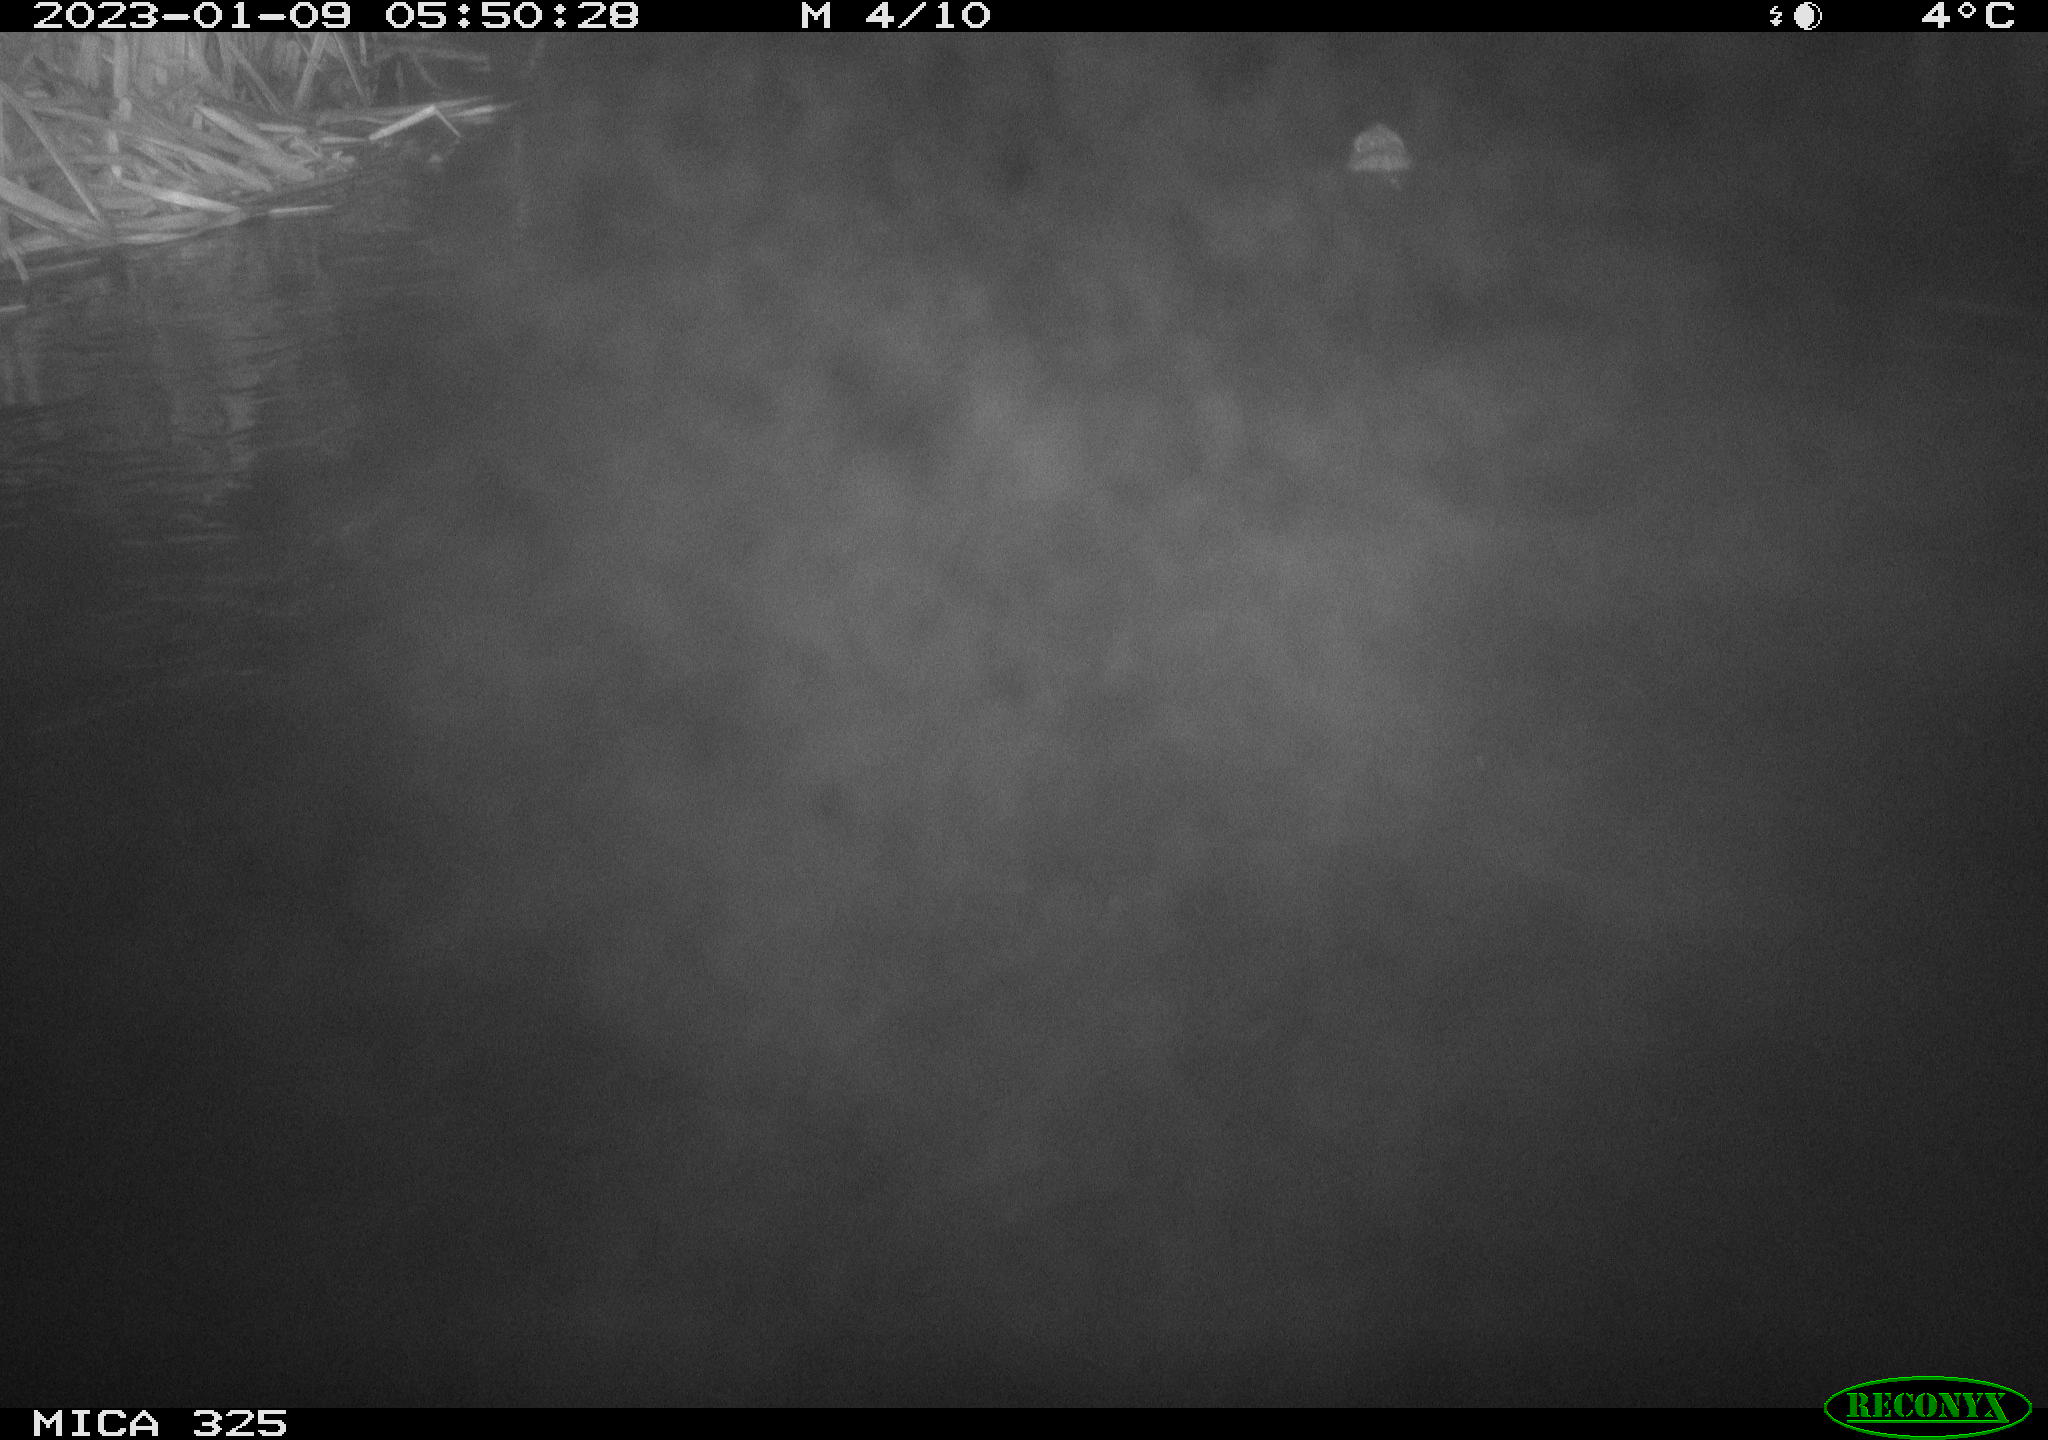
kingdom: Animalia
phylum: Chordata
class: Mammalia
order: Rodentia
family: Cricetidae
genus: Ondatra
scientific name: Ondatra zibethicus
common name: Muskrat
